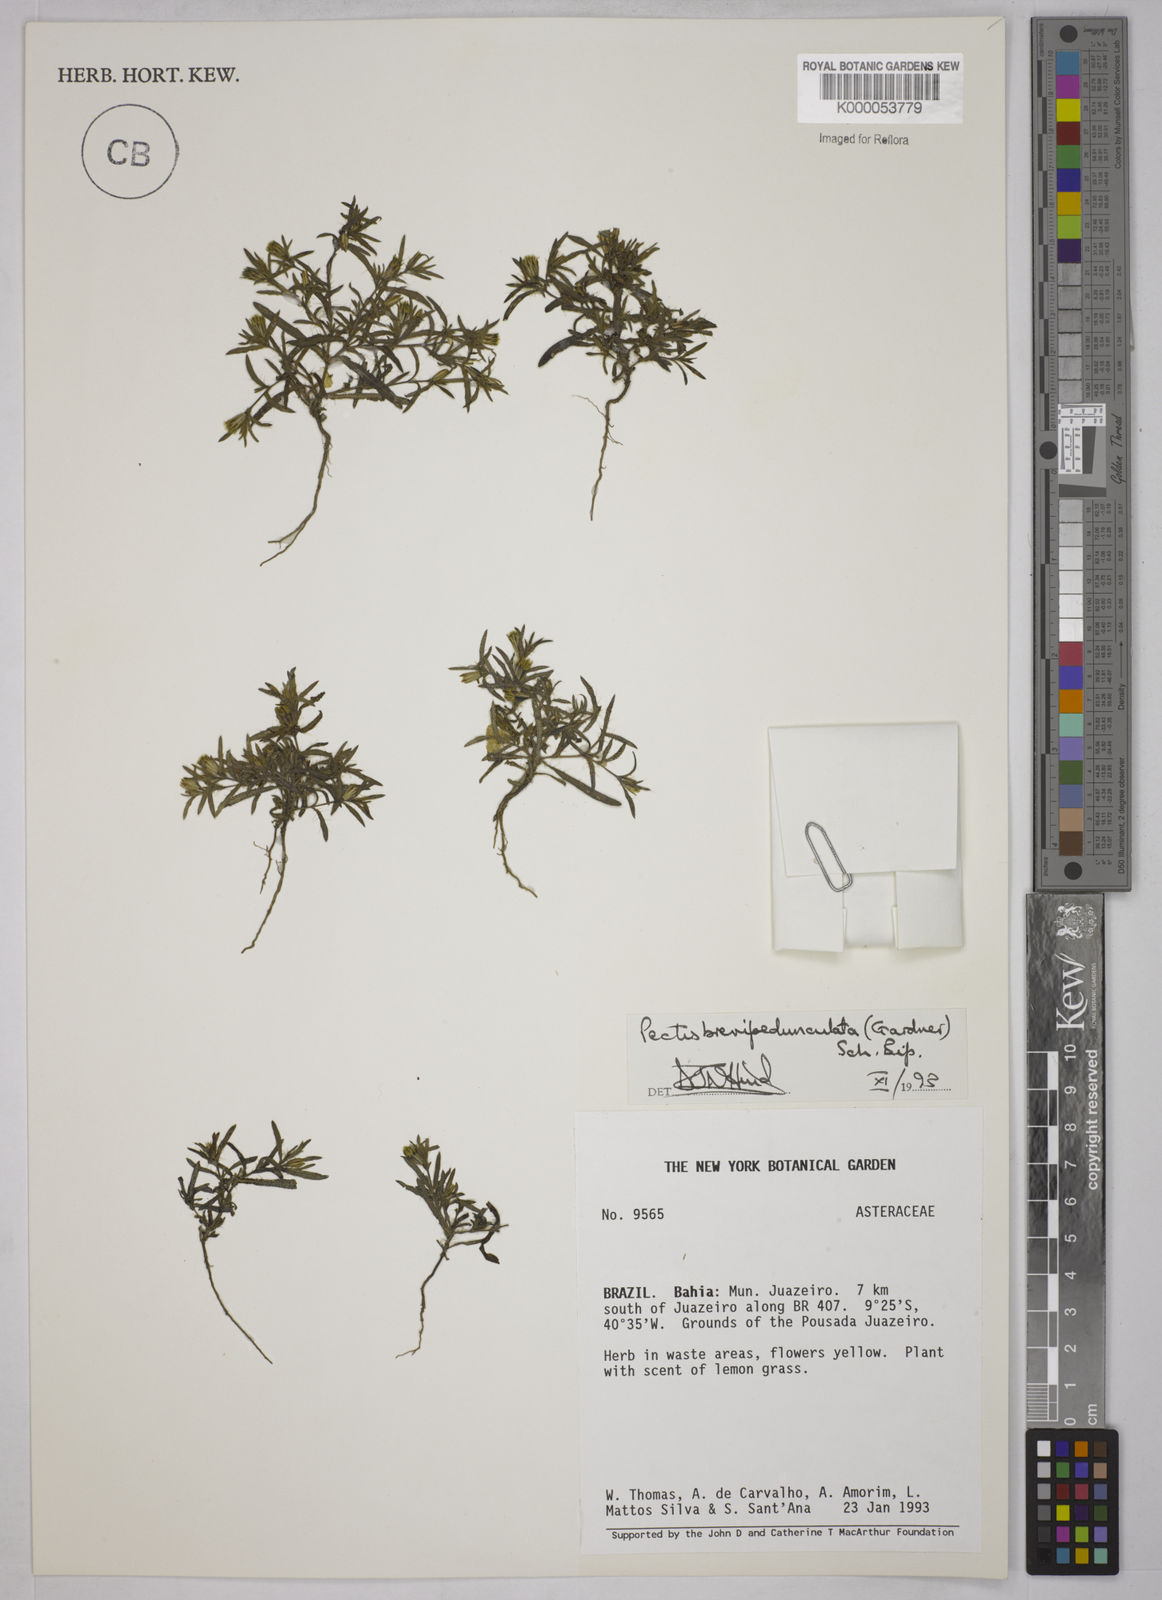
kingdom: Plantae
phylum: Tracheophyta
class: Magnoliopsida
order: Asterales
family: Asteraceae
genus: Pectis
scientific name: Pectis brevipedunculata
